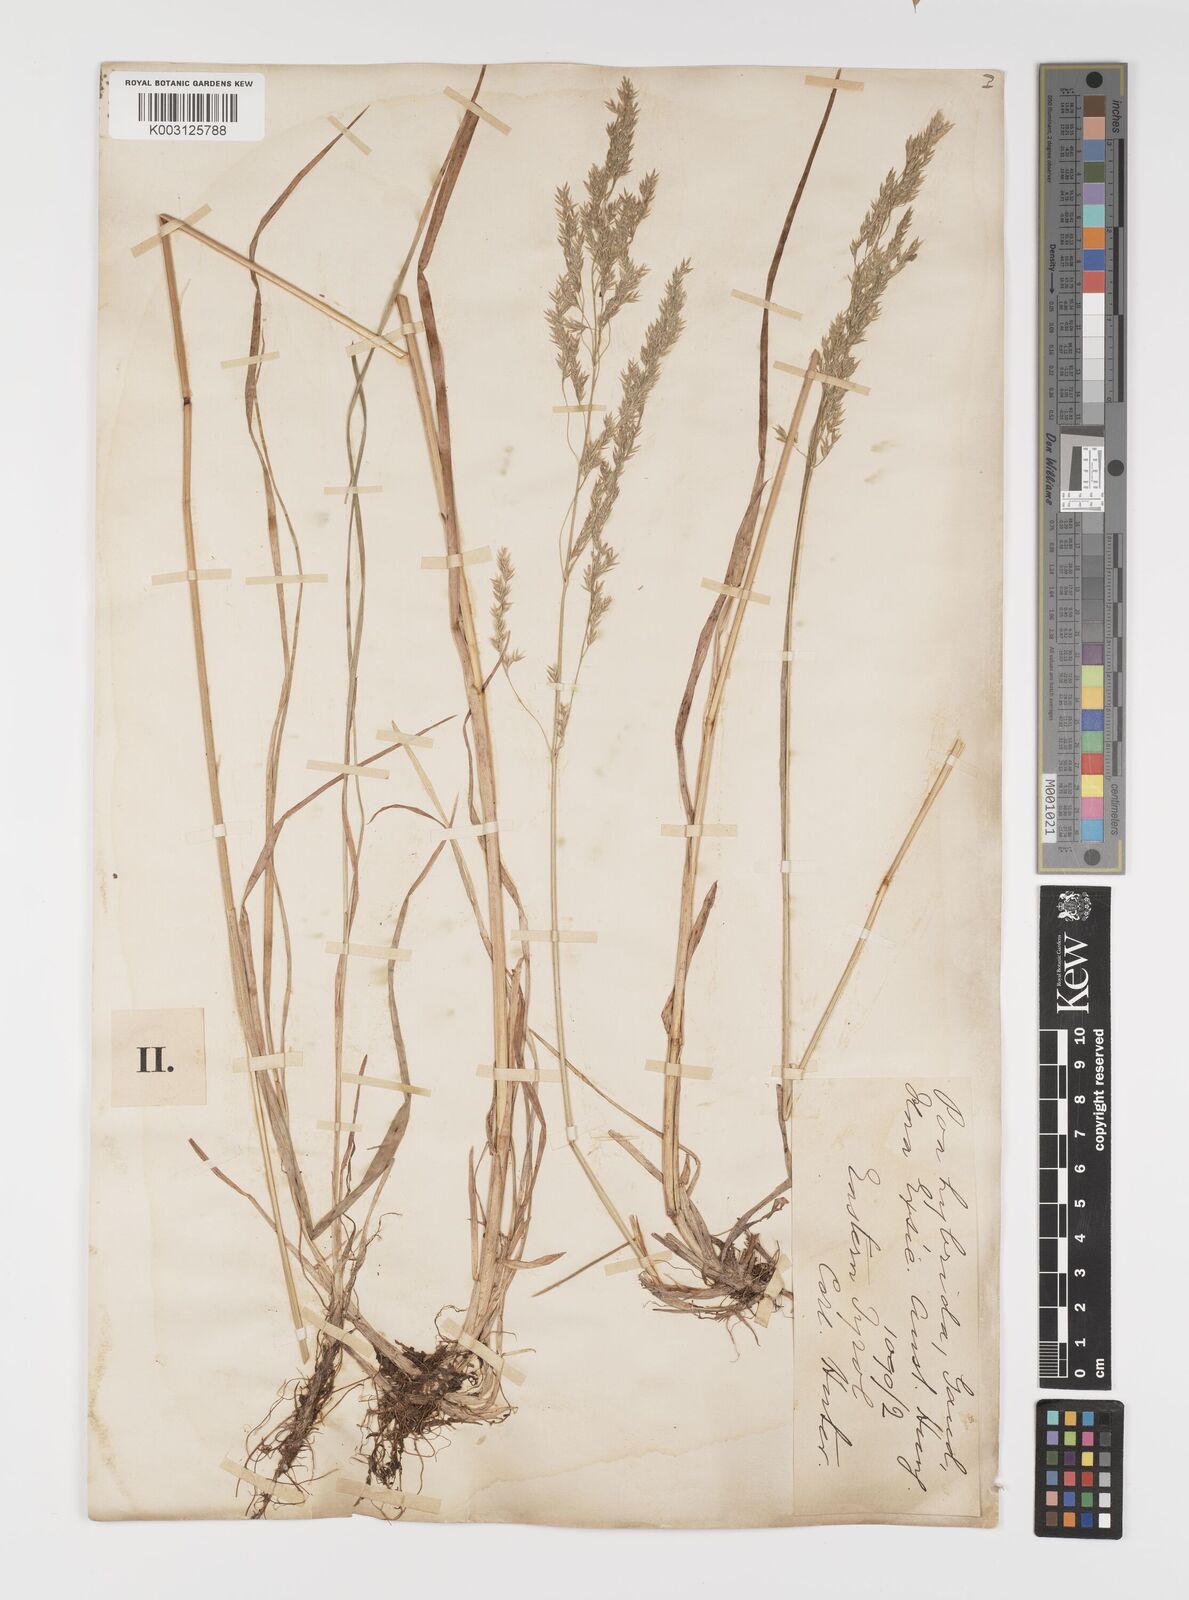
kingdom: Plantae
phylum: Tracheophyta
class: Liliopsida
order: Poales
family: Poaceae
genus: Poa
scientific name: Poa hybrida
